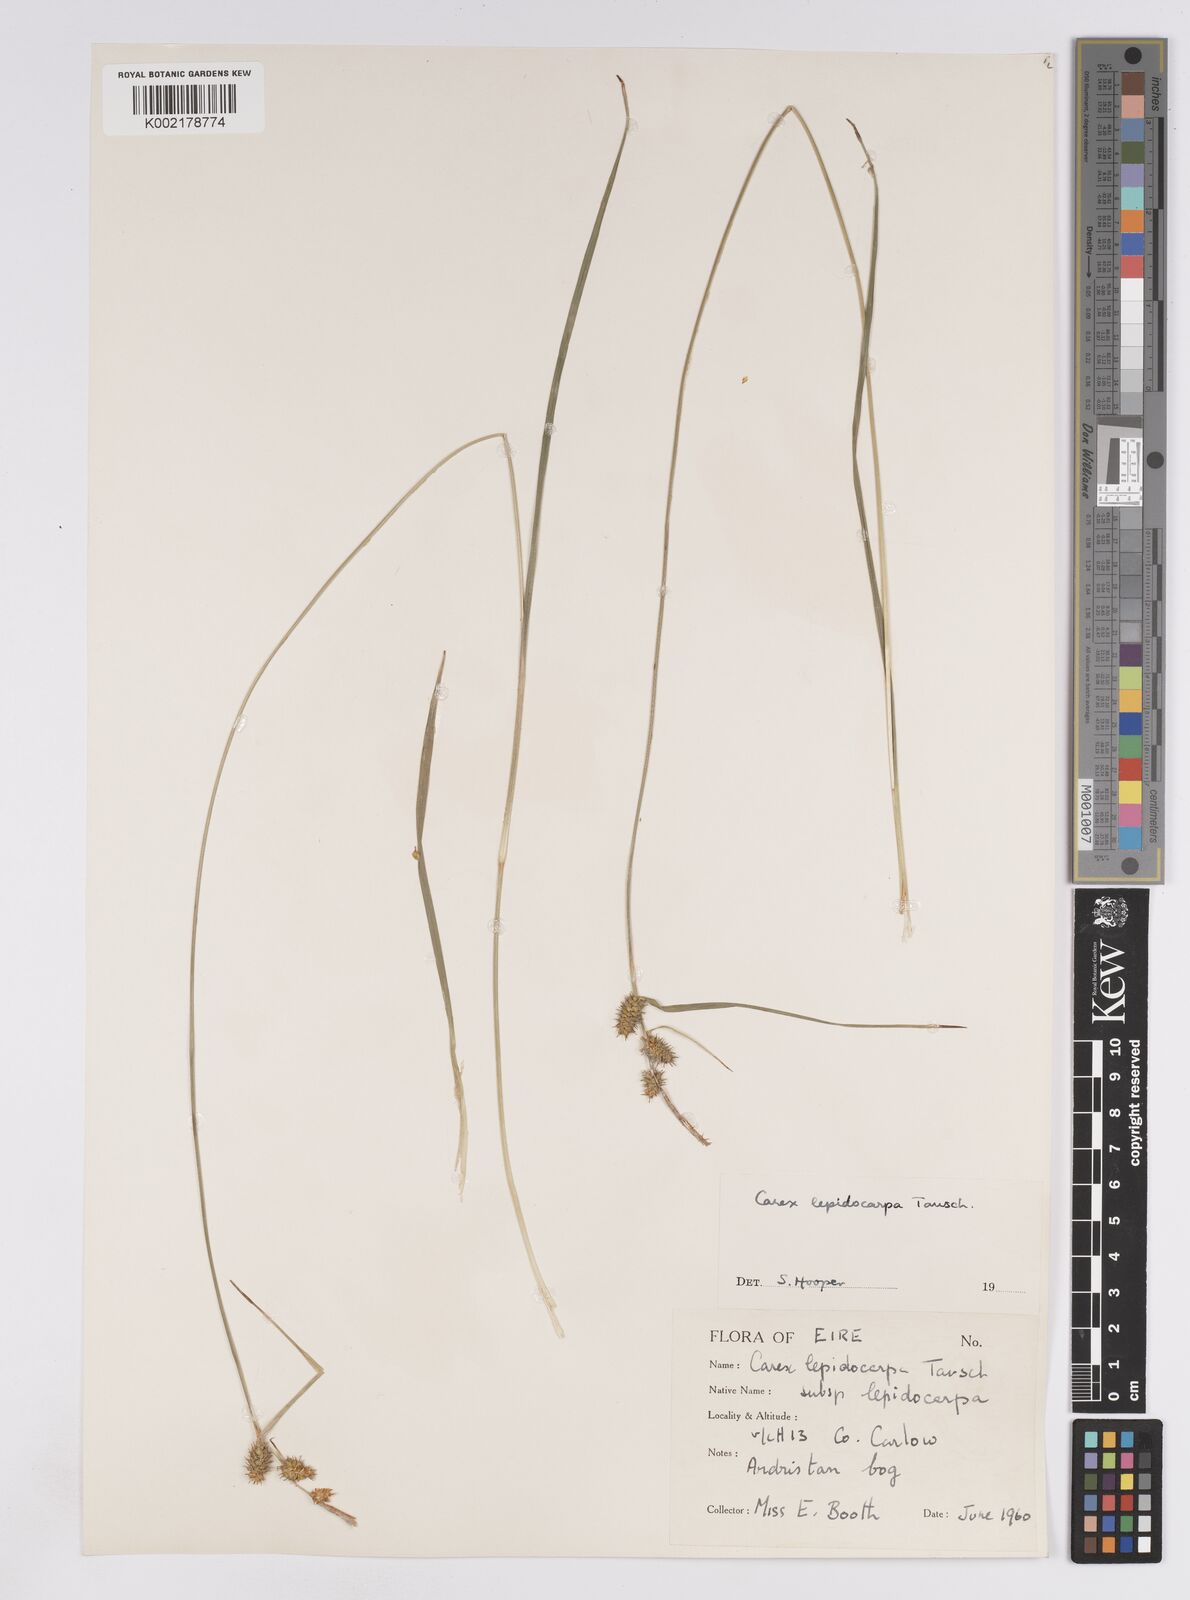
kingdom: Plantae
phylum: Tracheophyta
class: Liliopsida
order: Poales
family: Cyperaceae
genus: Carex
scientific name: Carex lepidocarpa
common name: Long-stalked yellow-sedge
